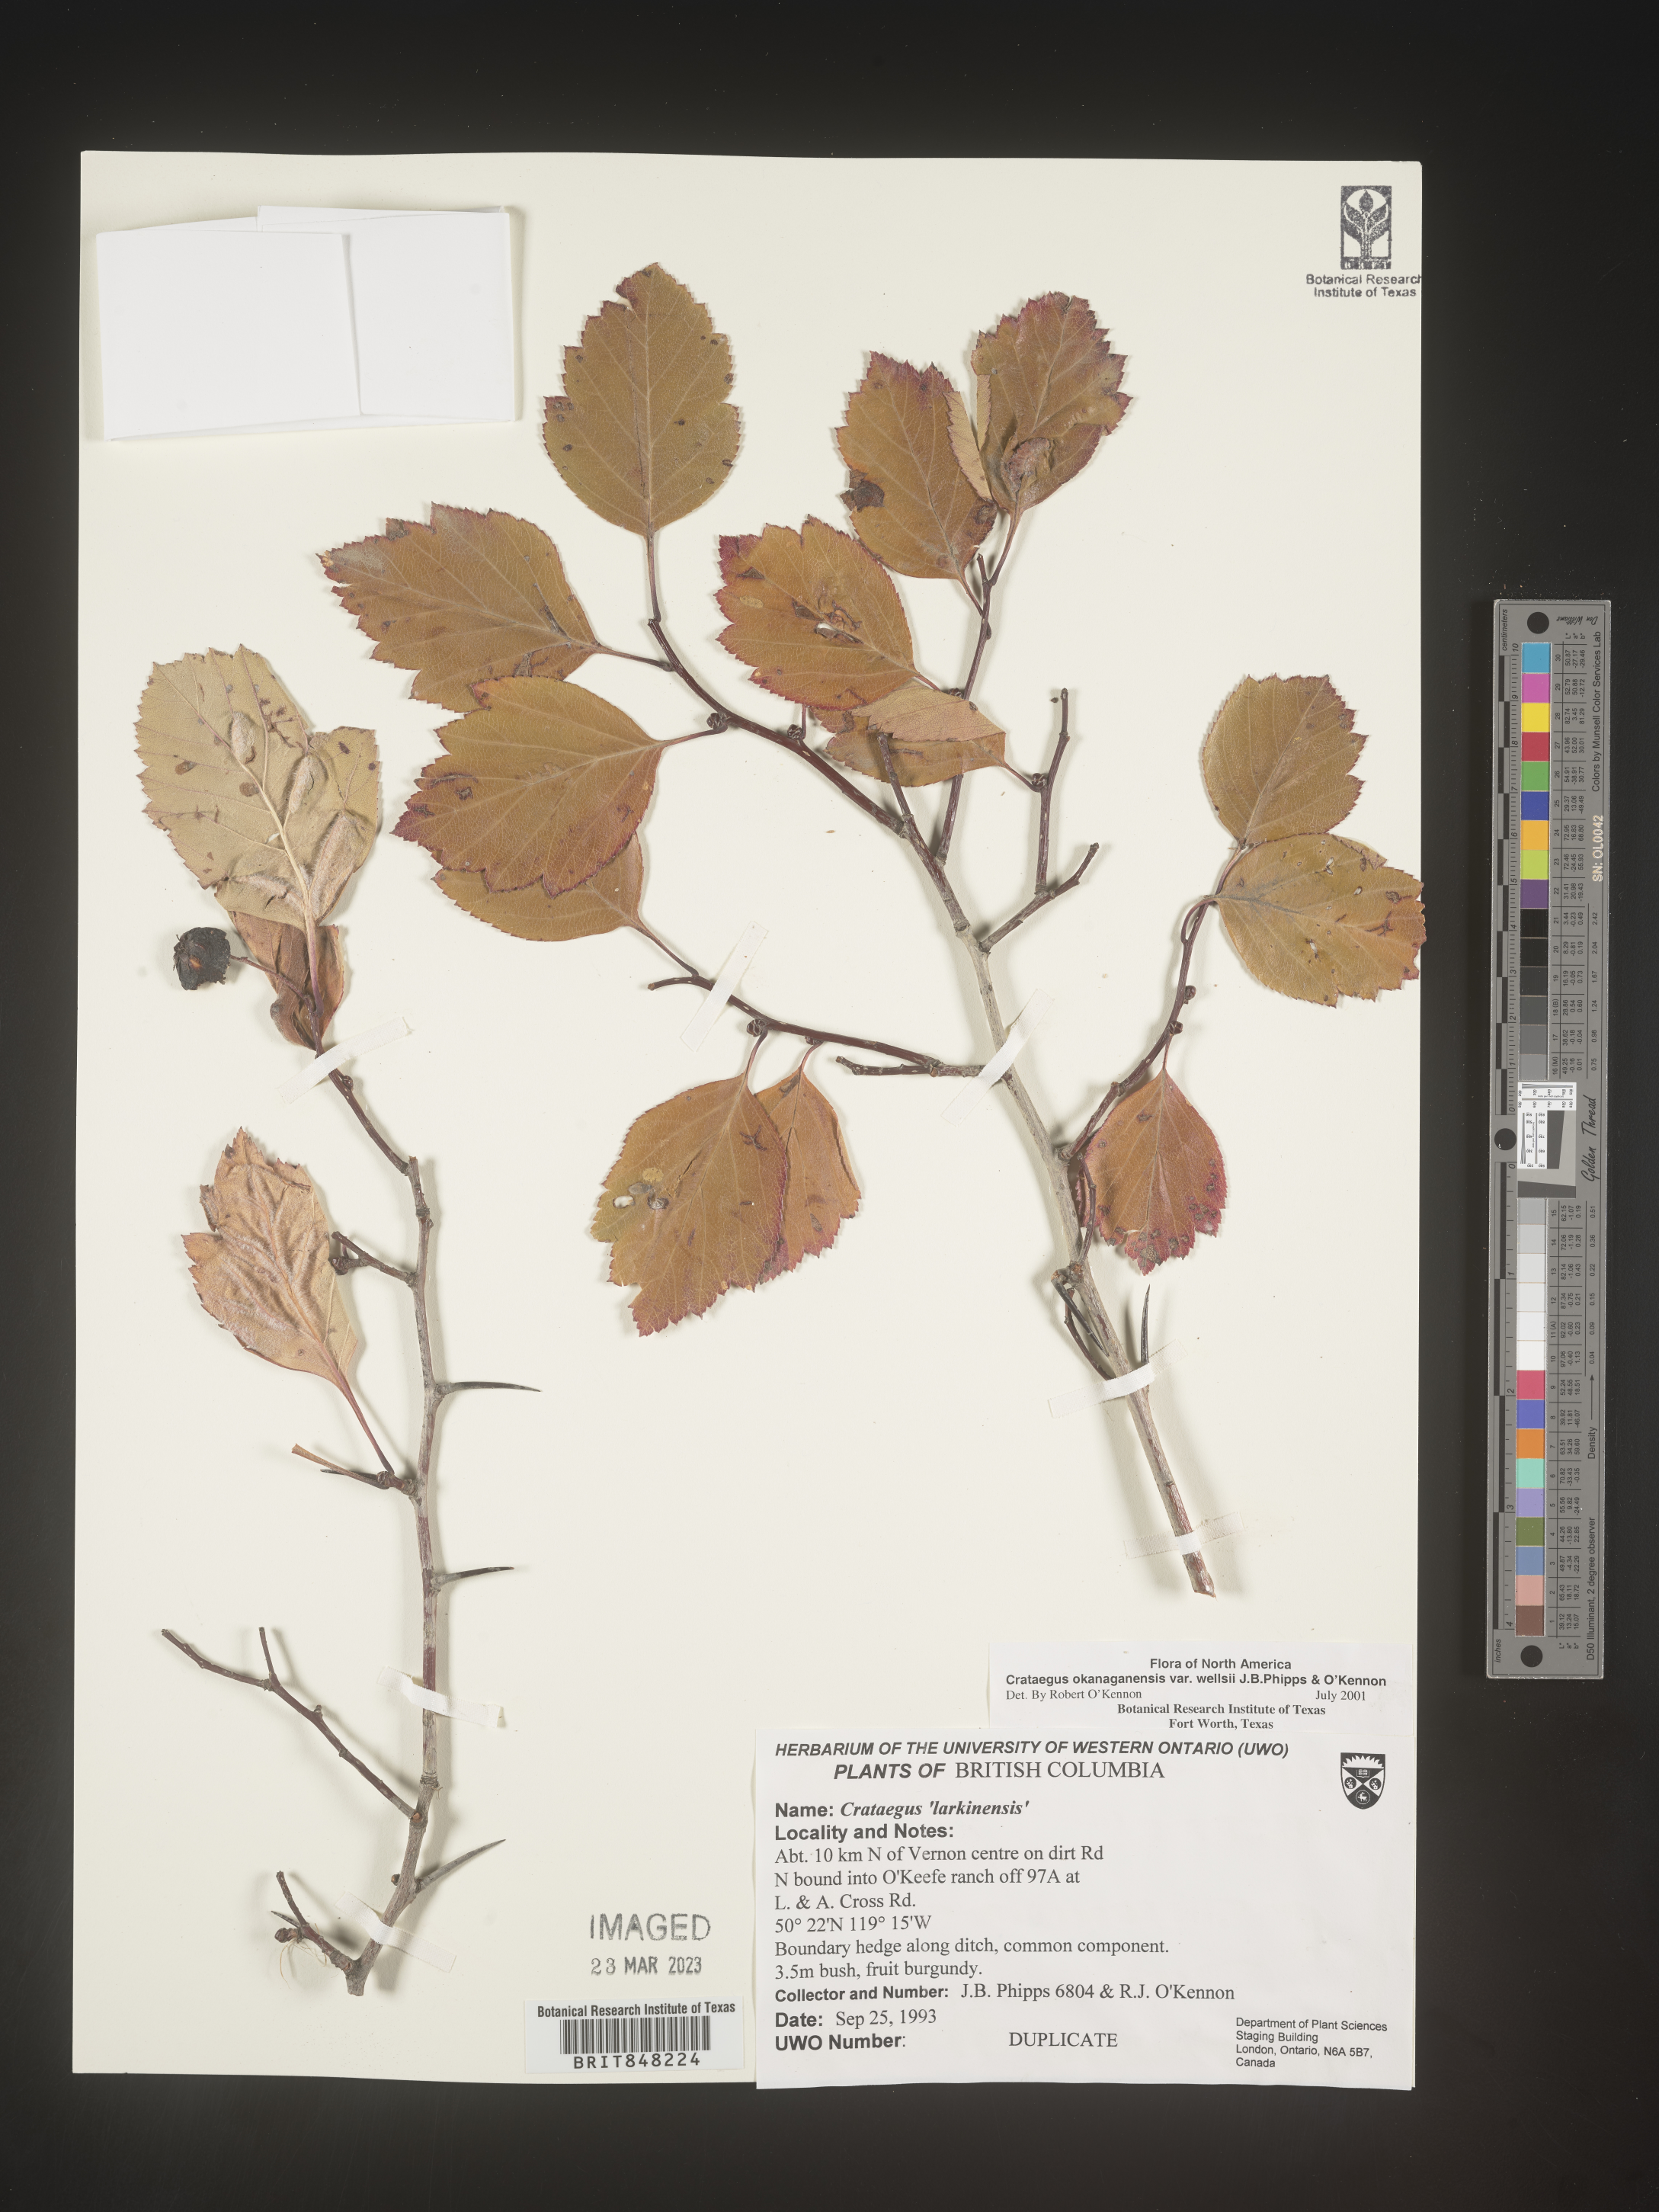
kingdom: Plantae
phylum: Tracheophyta
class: Magnoliopsida
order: Rosales
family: Rosaceae
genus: Crataegus
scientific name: Crataegus okanaganensis
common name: Okanagan valley hawthorn
